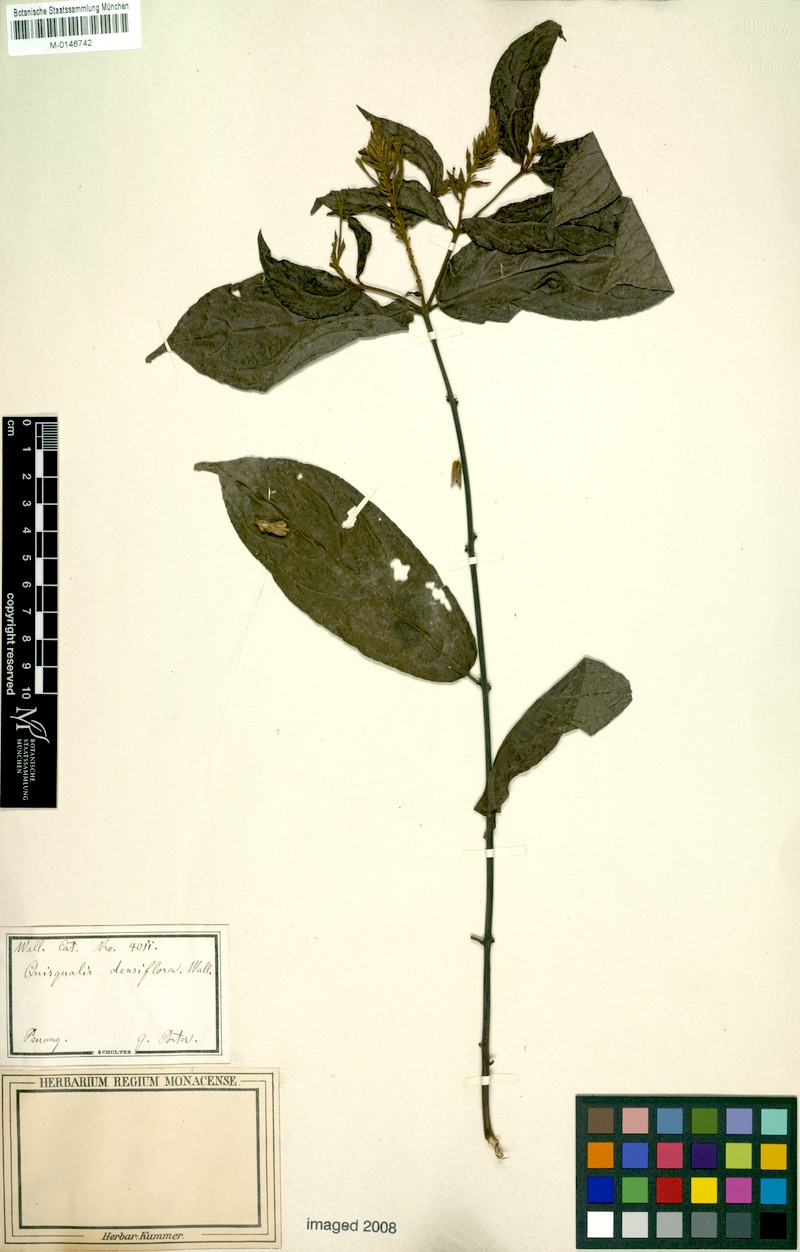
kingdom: Plantae
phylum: Tracheophyta
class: Magnoliopsida
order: Myrtales
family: Combretaceae
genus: Combretum
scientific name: Combretum densiflorum
